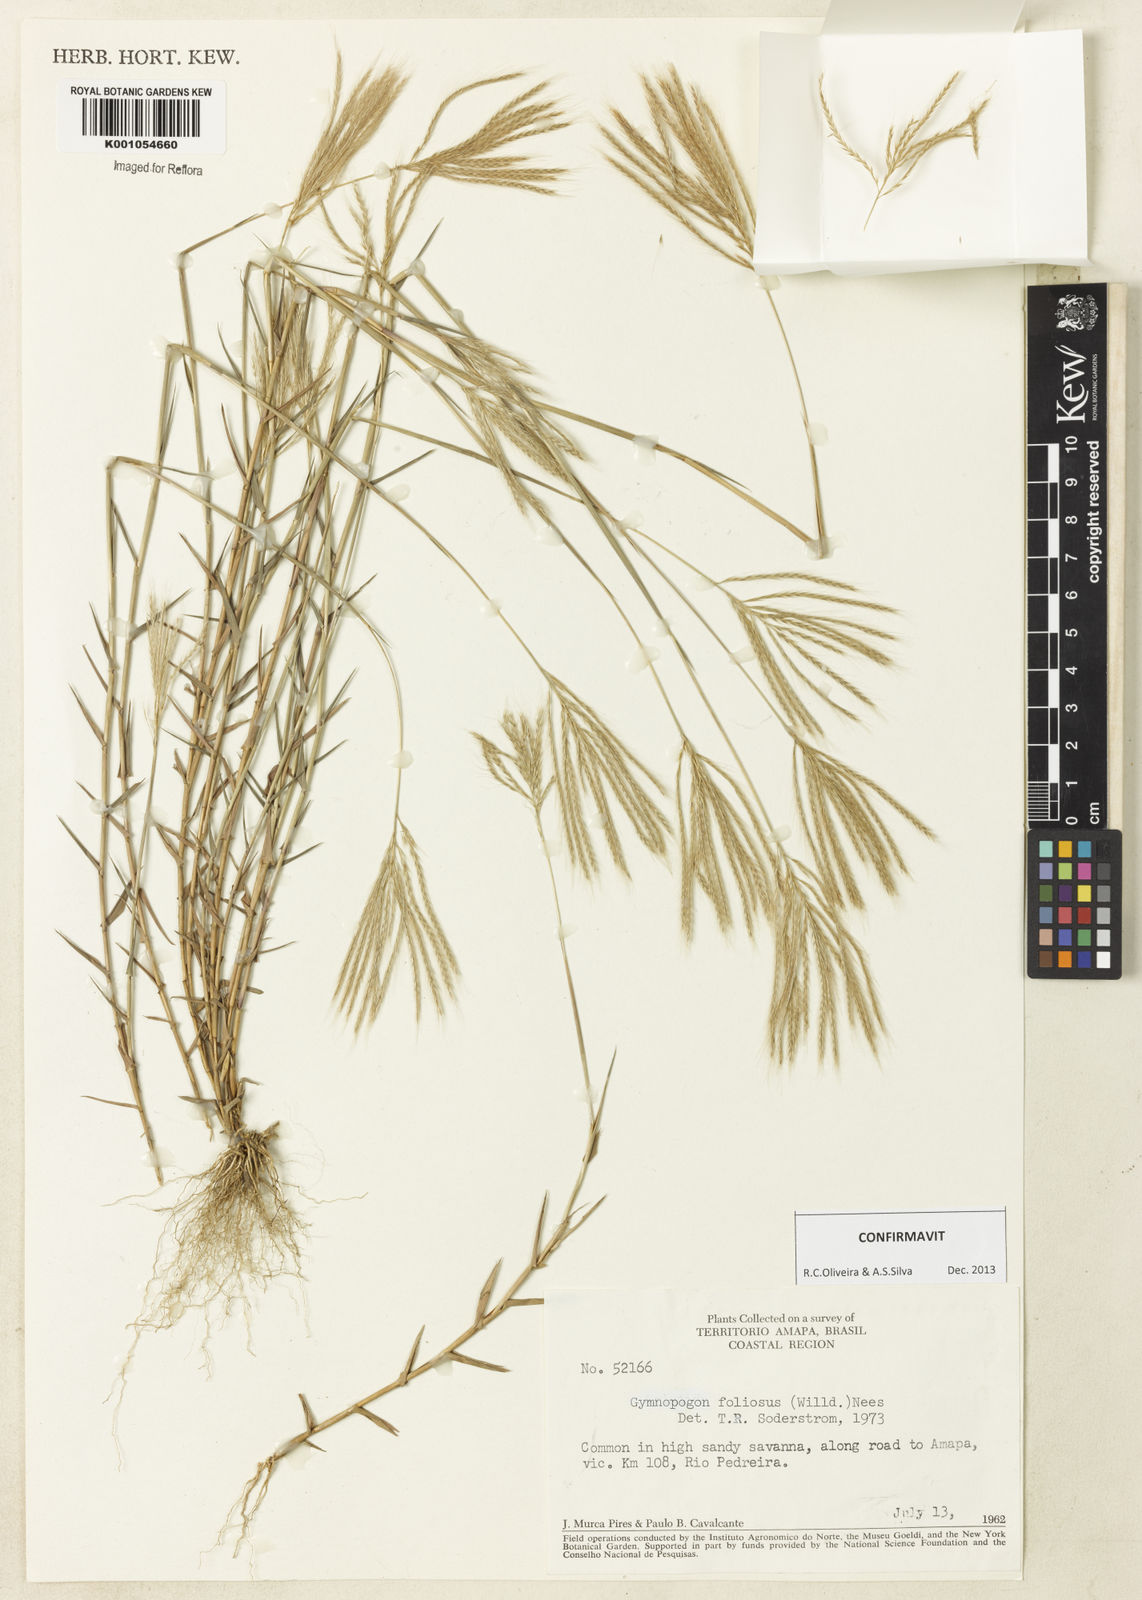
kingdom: Plantae
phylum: Tracheophyta
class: Liliopsida
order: Poales
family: Poaceae
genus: Gymnopogon
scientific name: Gymnopogon foliosus
